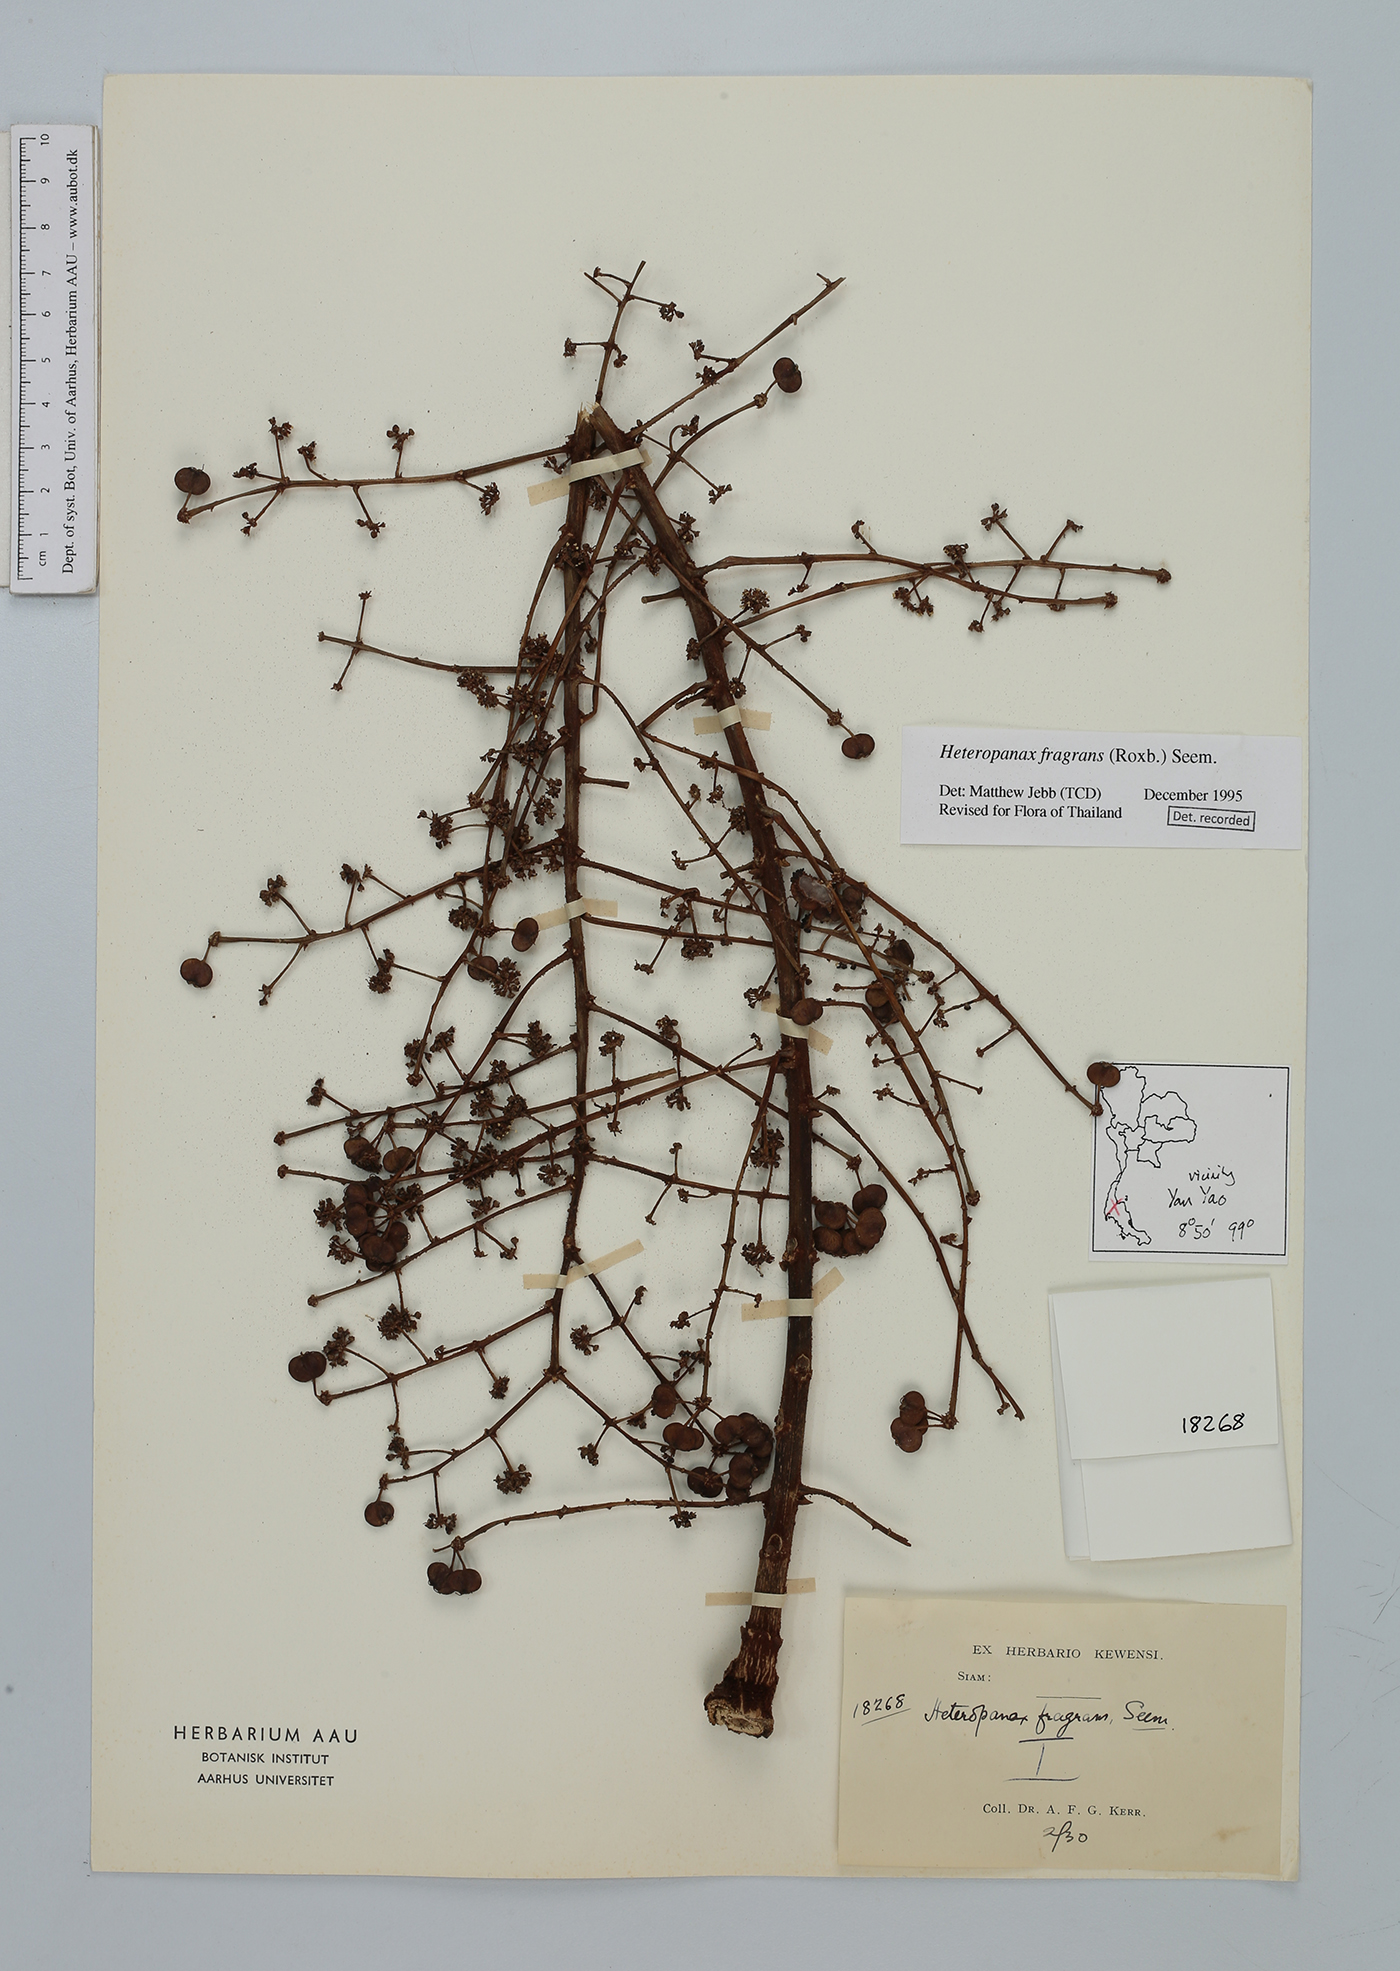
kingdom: Plantae
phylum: Tracheophyta
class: Magnoliopsida
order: Apiales
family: Araliaceae
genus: Heteropanax
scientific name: Heteropanax fragrans
